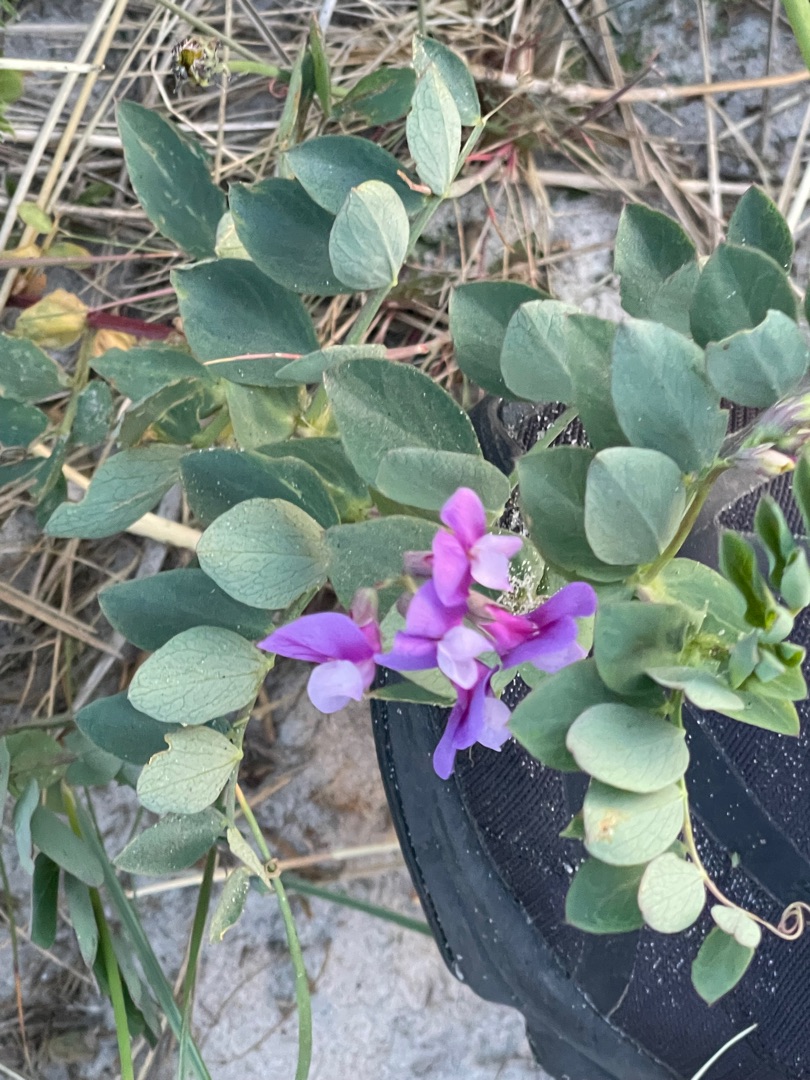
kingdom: Plantae
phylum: Tracheophyta
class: Magnoliopsida
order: Fabales
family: Fabaceae
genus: Lathyrus
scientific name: Lathyrus japonicus
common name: Strand-fladbælg
